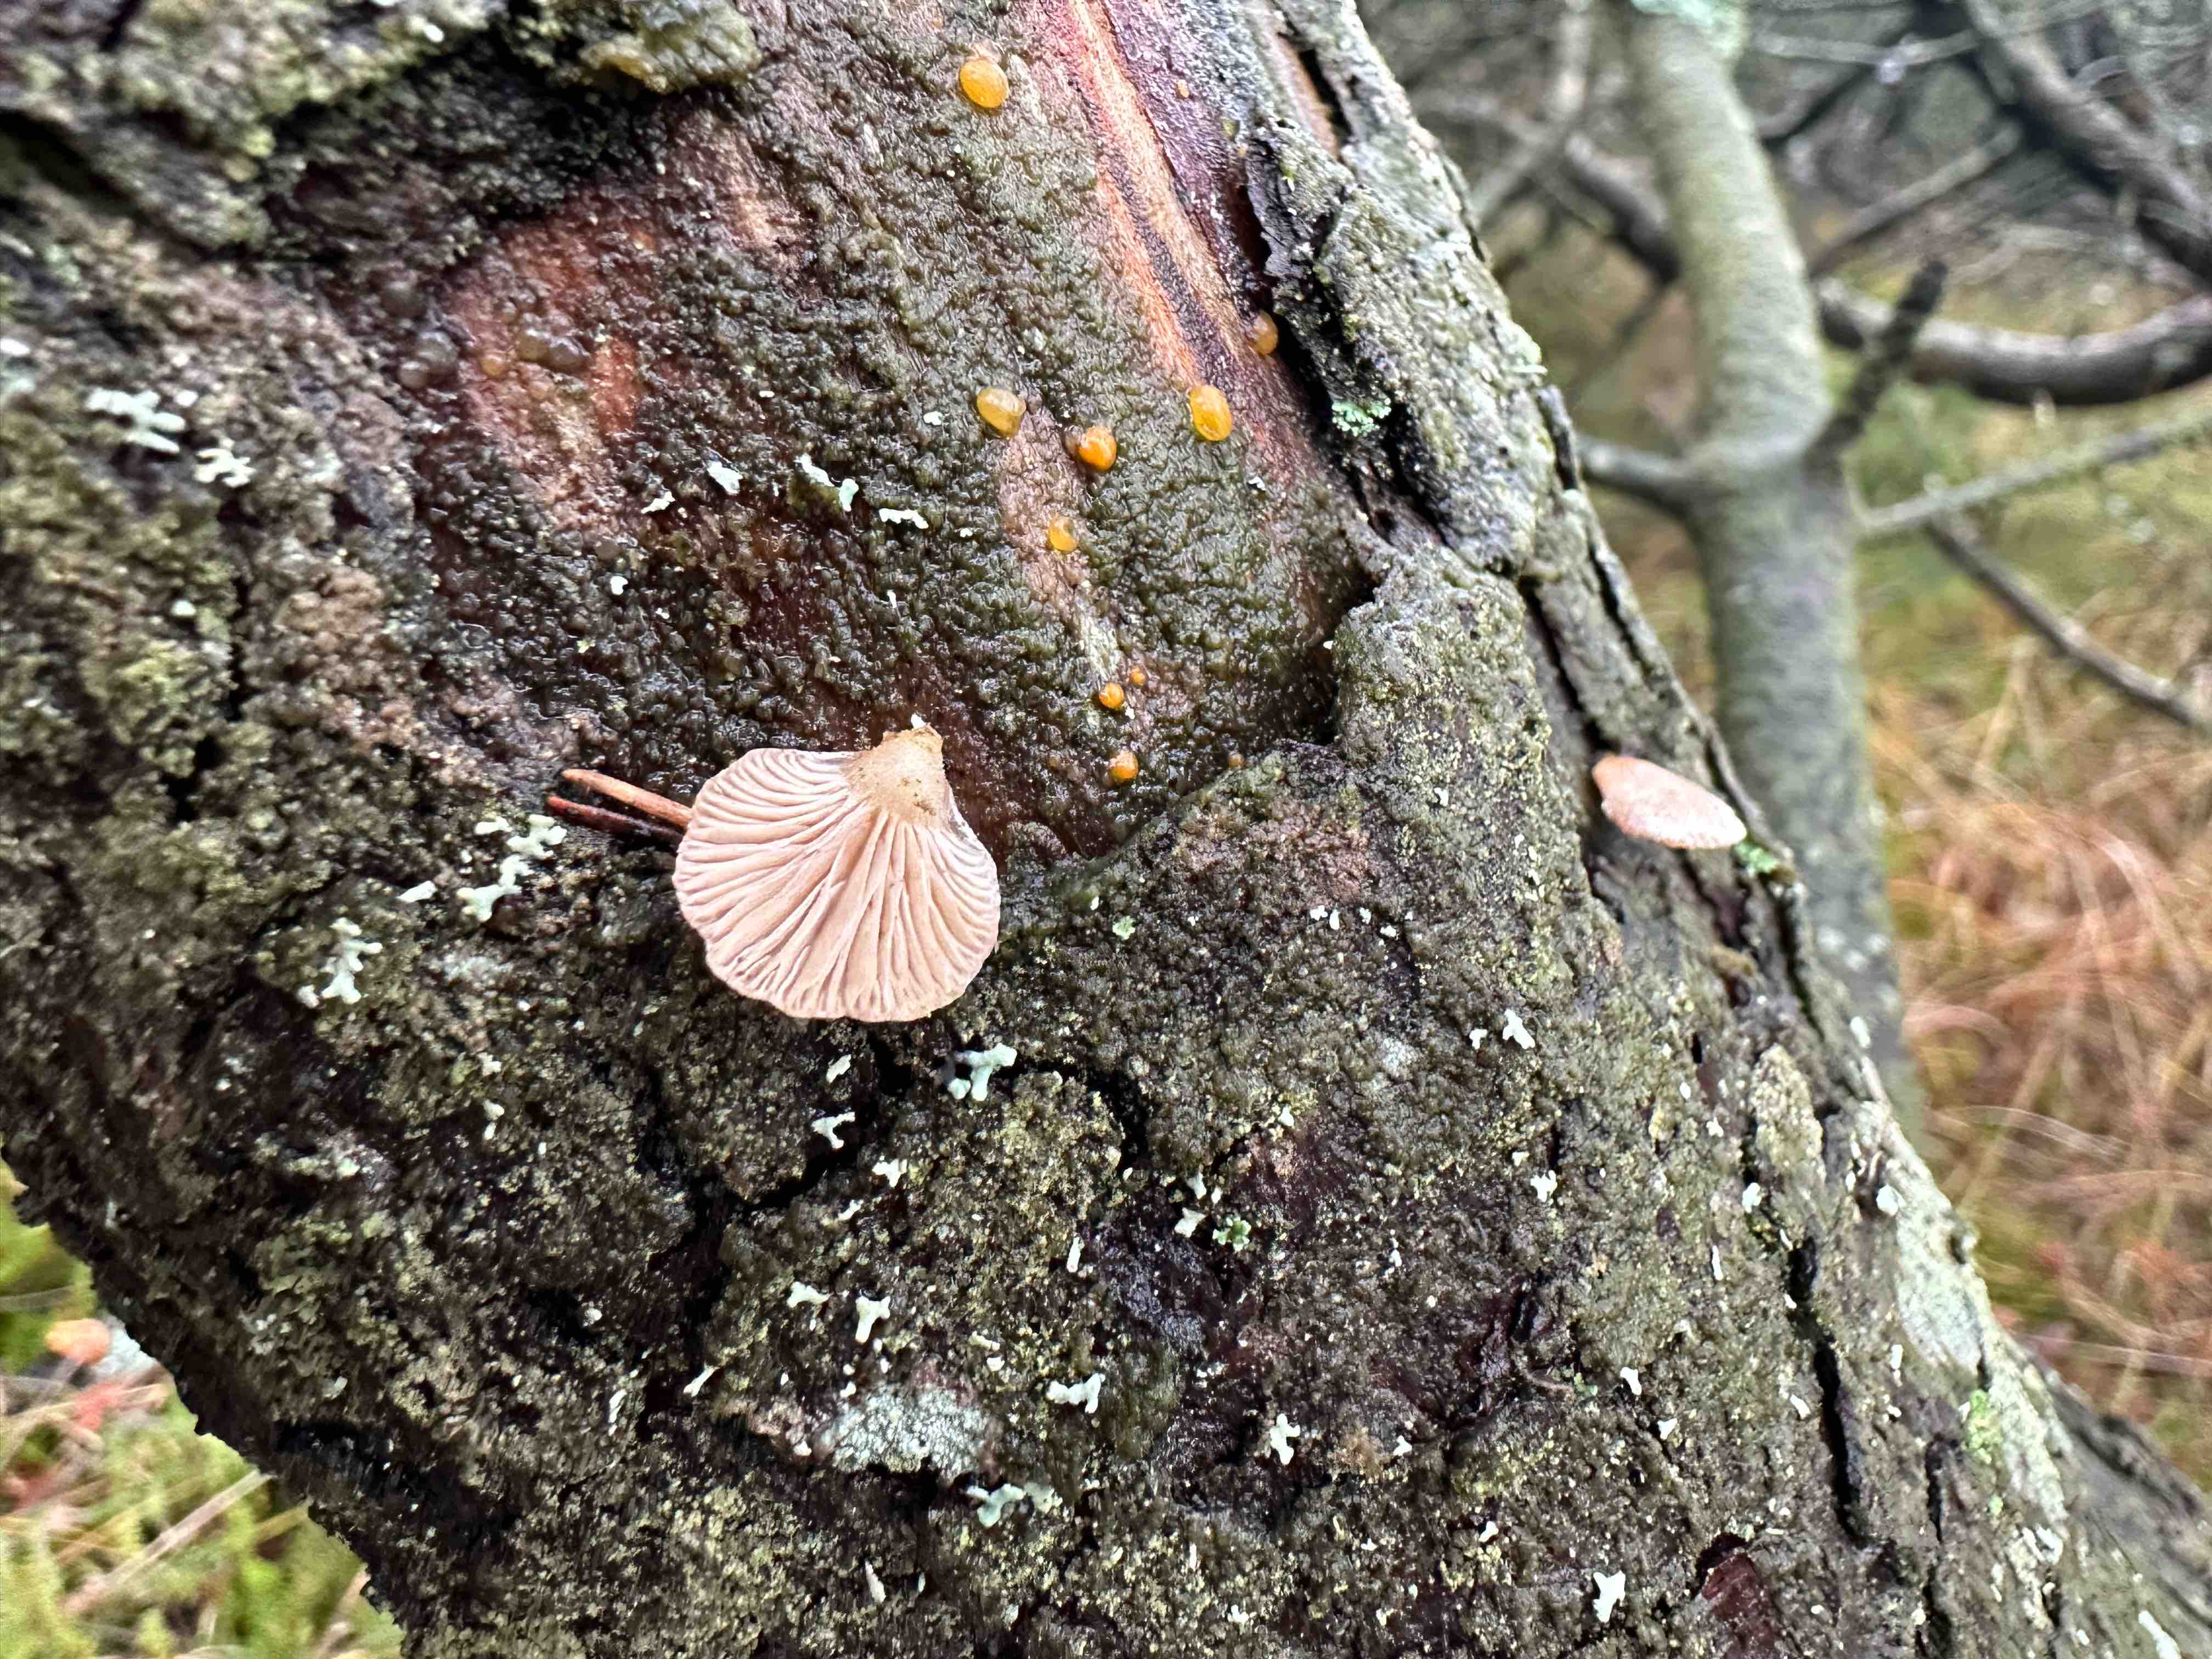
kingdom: Fungi
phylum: Basidiomycota
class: Agaricomycetes
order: Agaricales
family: Mycenaceae
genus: Panellus
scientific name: Panellus mitis
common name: mild epaulethat
